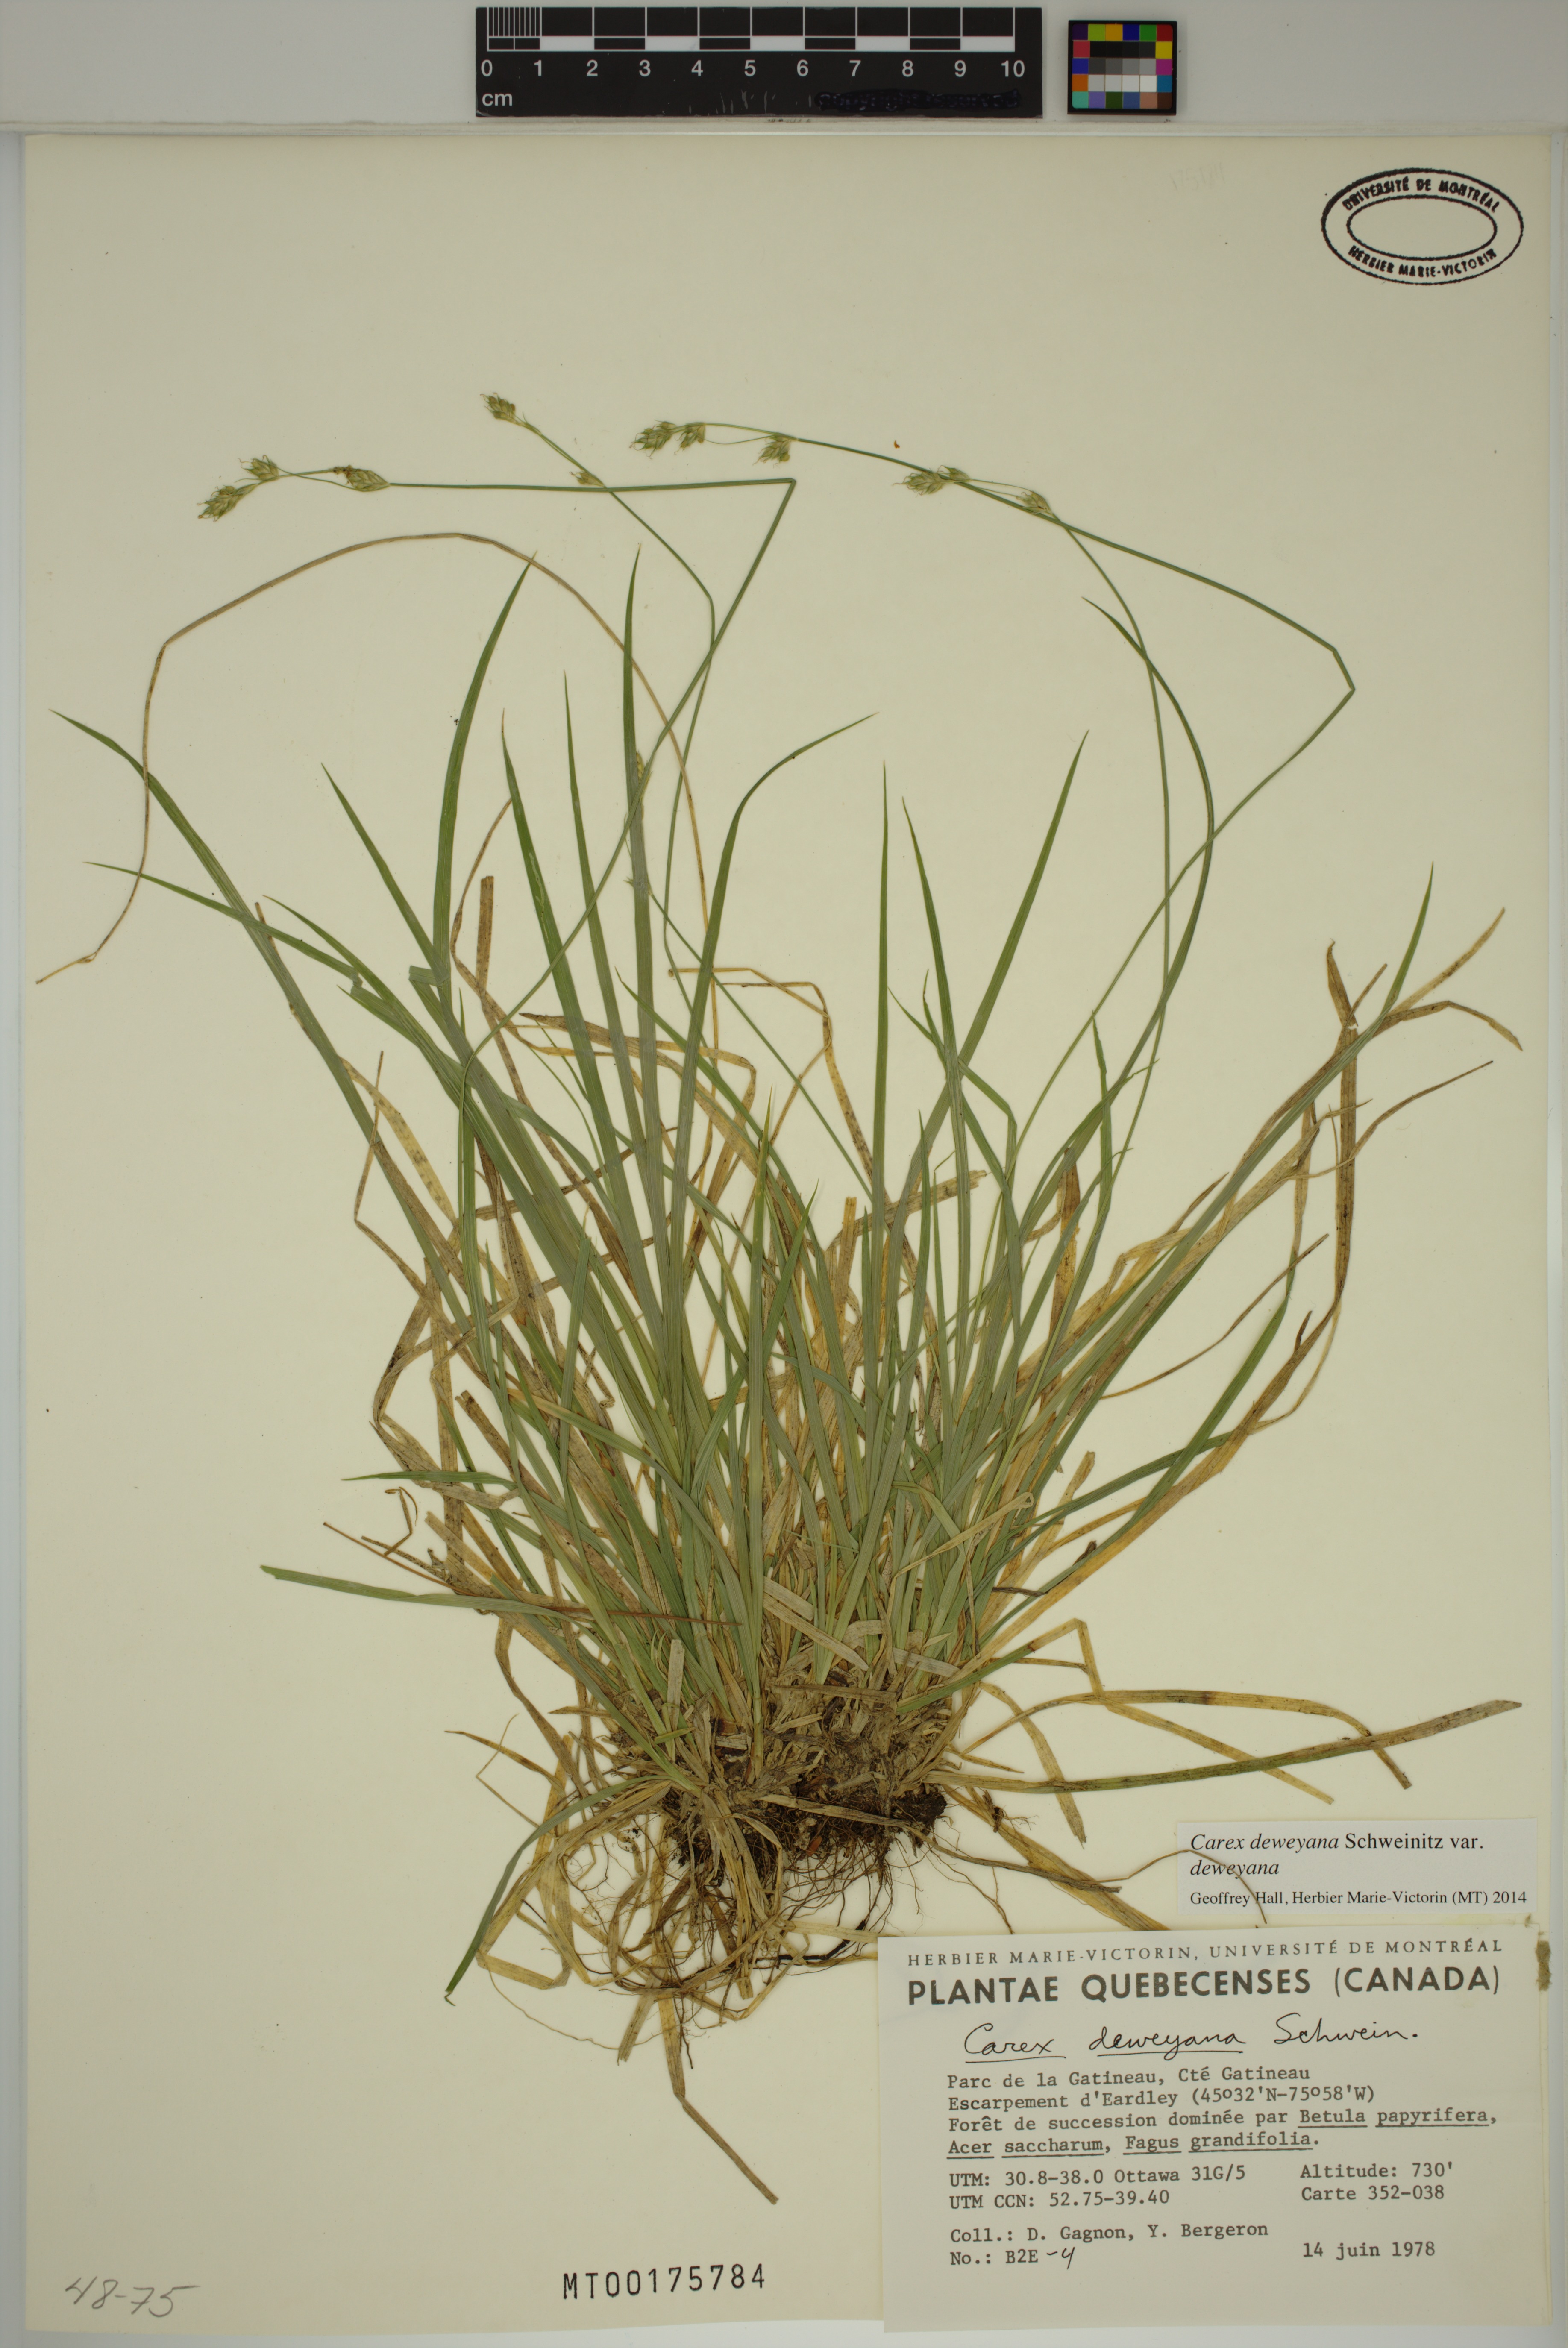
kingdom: Plantae
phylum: Tracheophyta
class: Liliopsida
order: Poales
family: Cyperaceae
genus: Carex
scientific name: Carex deweyana
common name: Dewey's sedge
